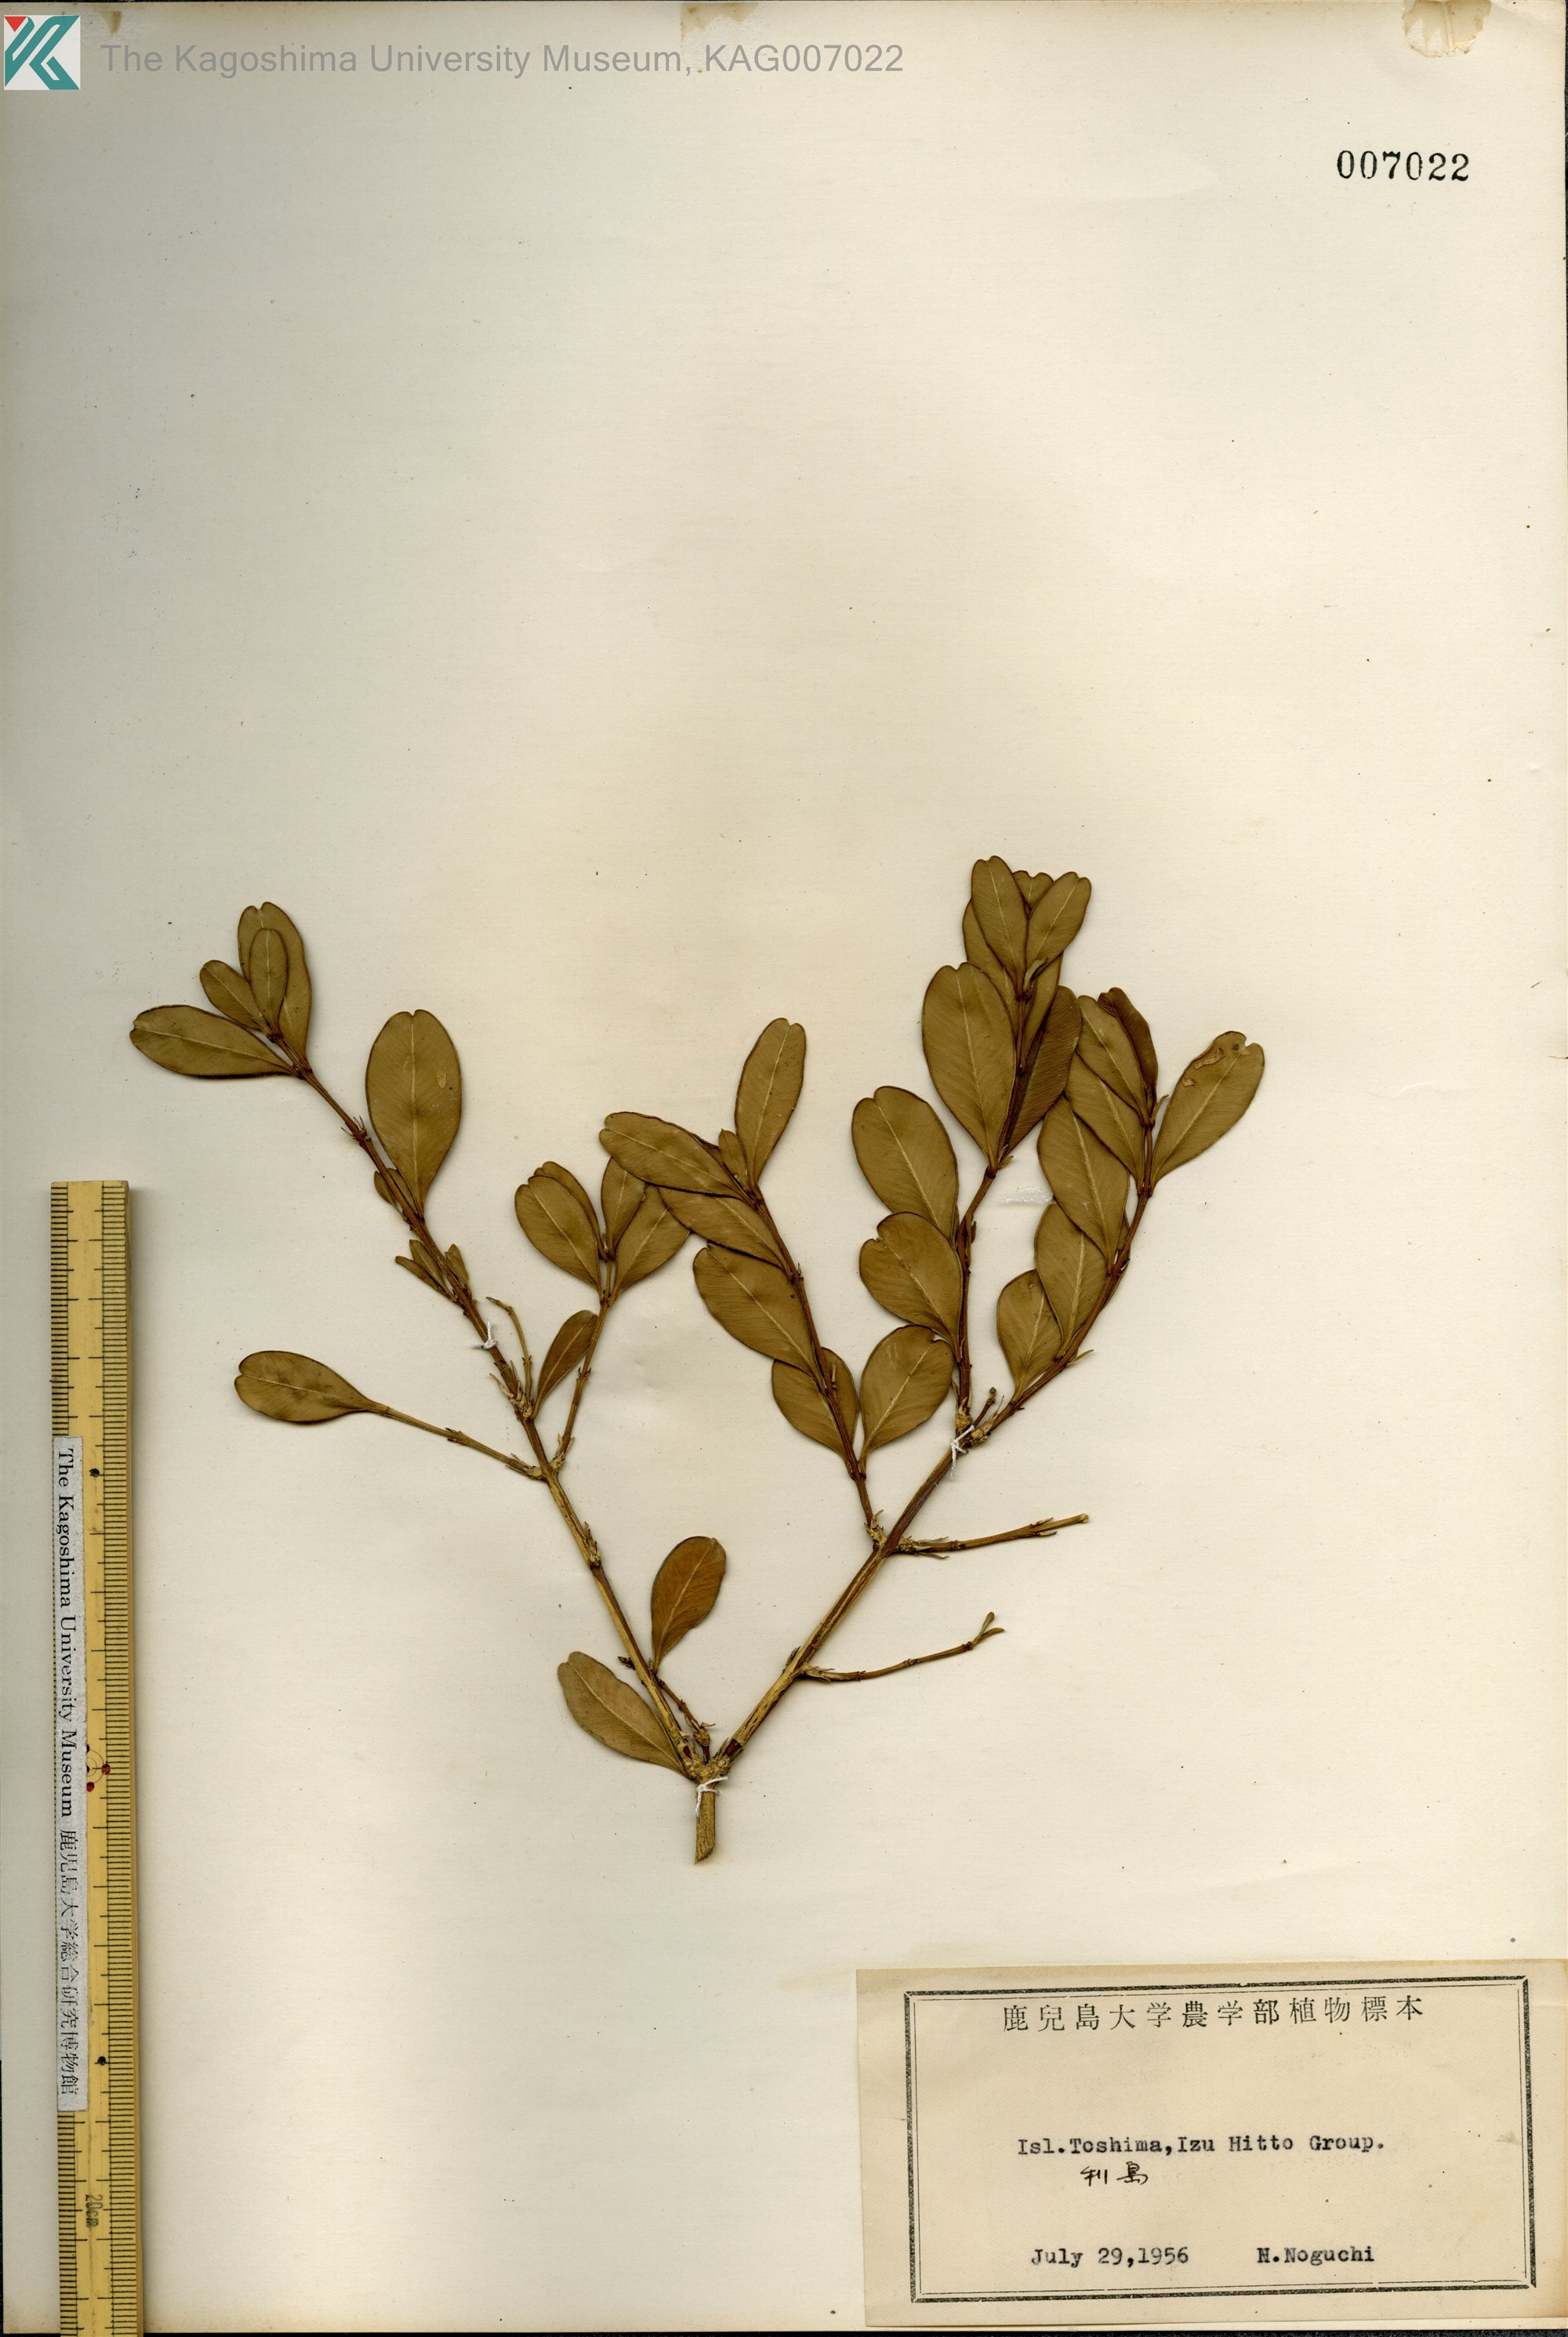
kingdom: Plantae
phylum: Tracheophyta
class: Magnoliopsida
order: Buxales
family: Buxaceae
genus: Buxus
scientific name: Buxus microphylla
